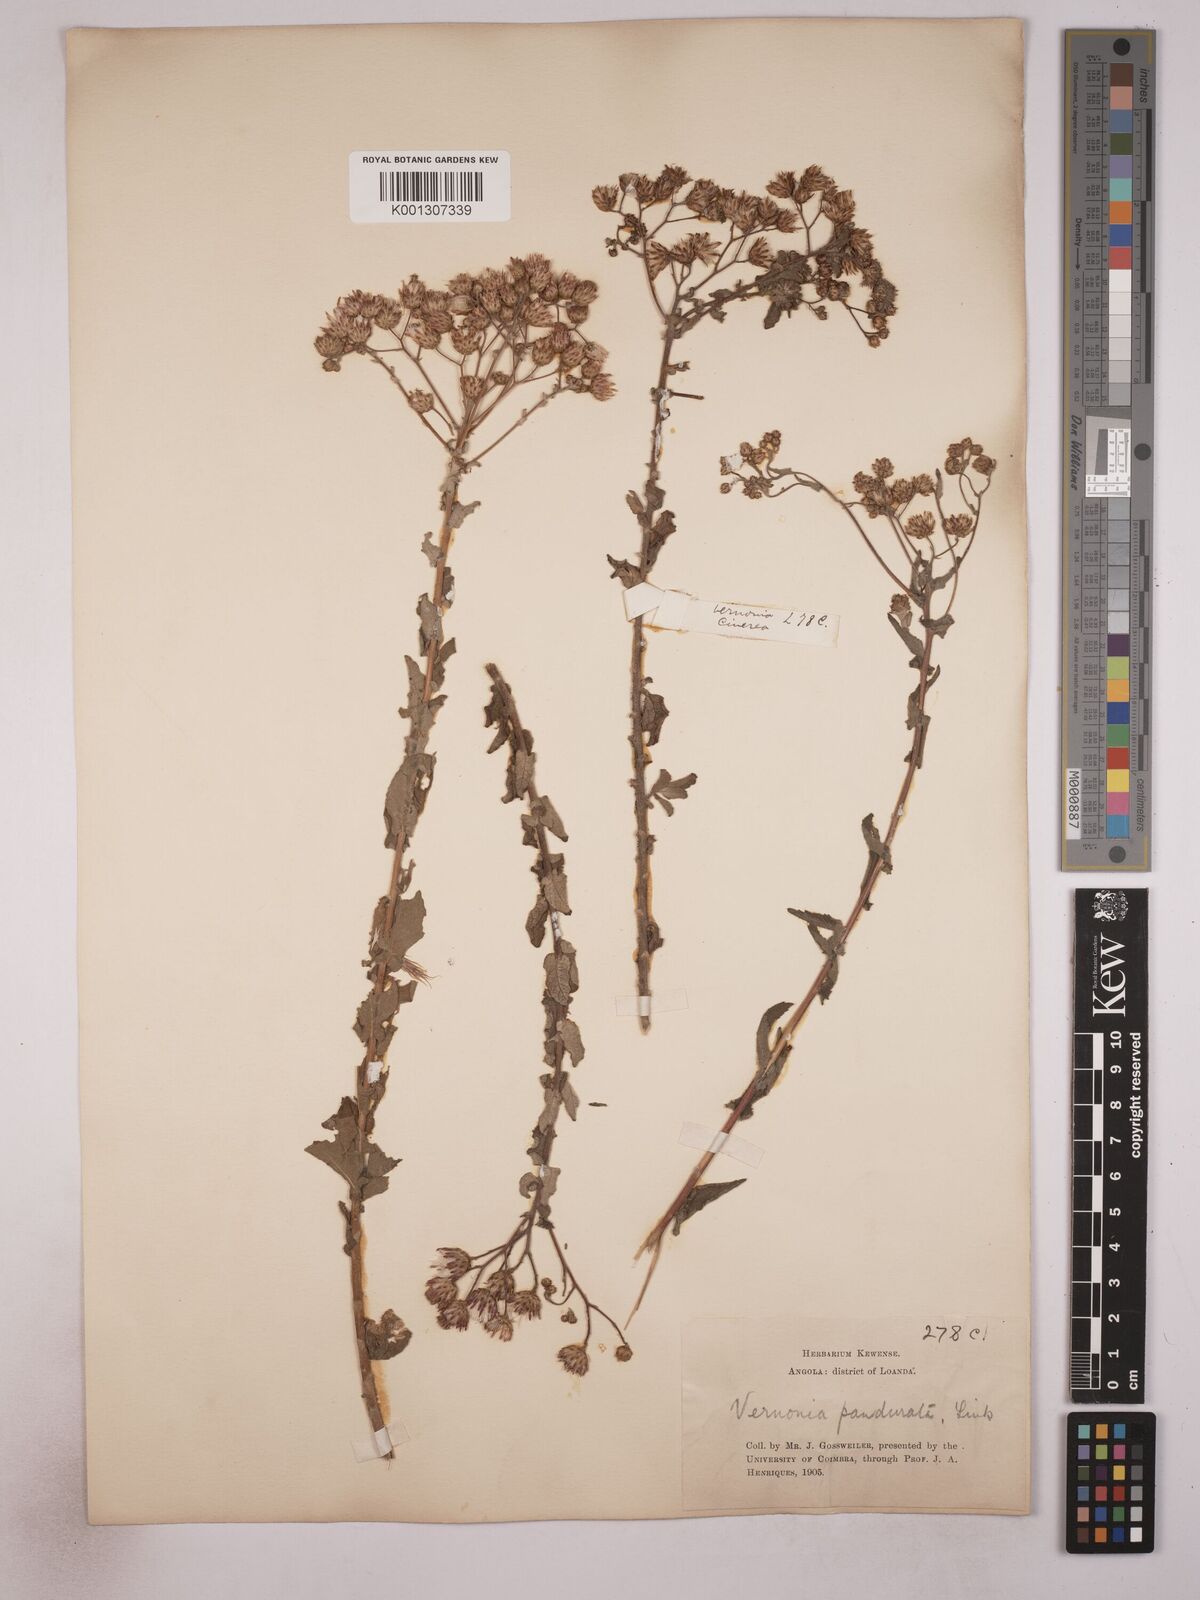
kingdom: Plantae
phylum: Tracheophyta
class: Magnoliopsida
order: Asterales
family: Asteraceae
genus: Vernonia
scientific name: Vernonia pandurata
